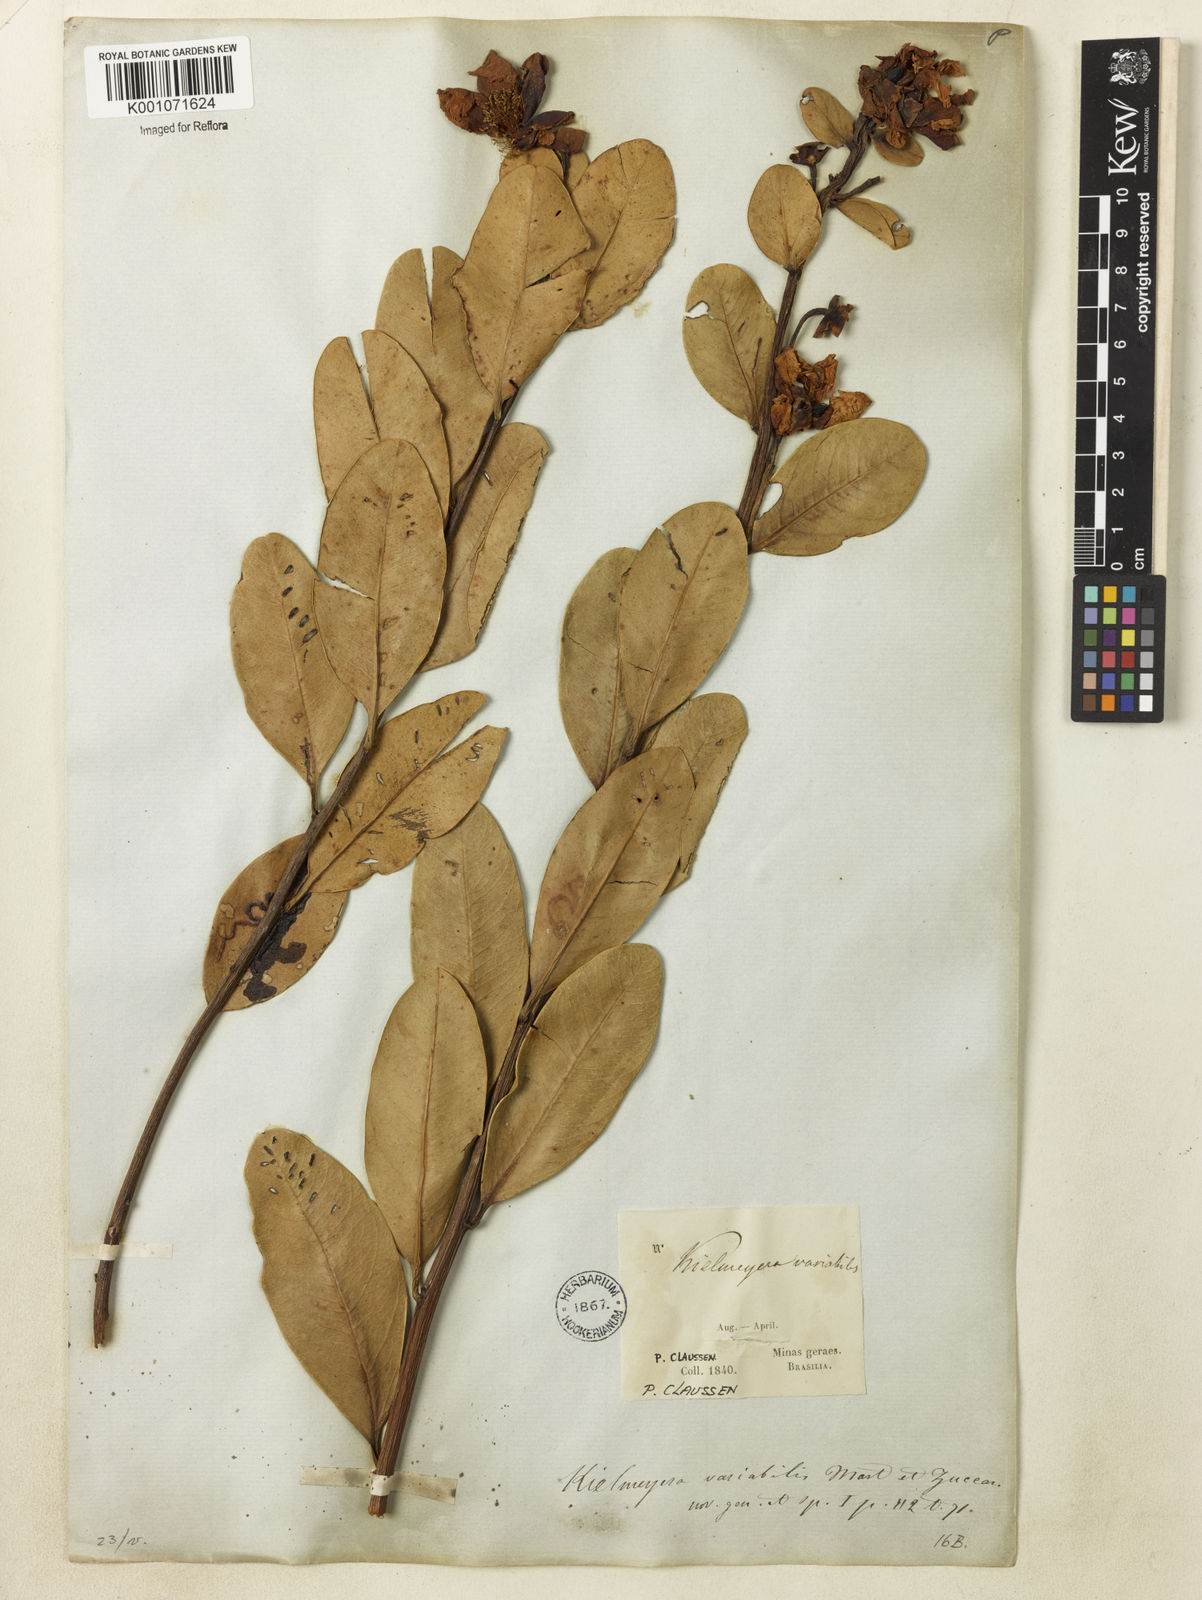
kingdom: Plantae
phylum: Tracheophyta
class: Magnoliopsida
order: Malpighiales
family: Calophyllaceae
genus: Kielmeyera
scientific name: Kielmeyera variabilis
